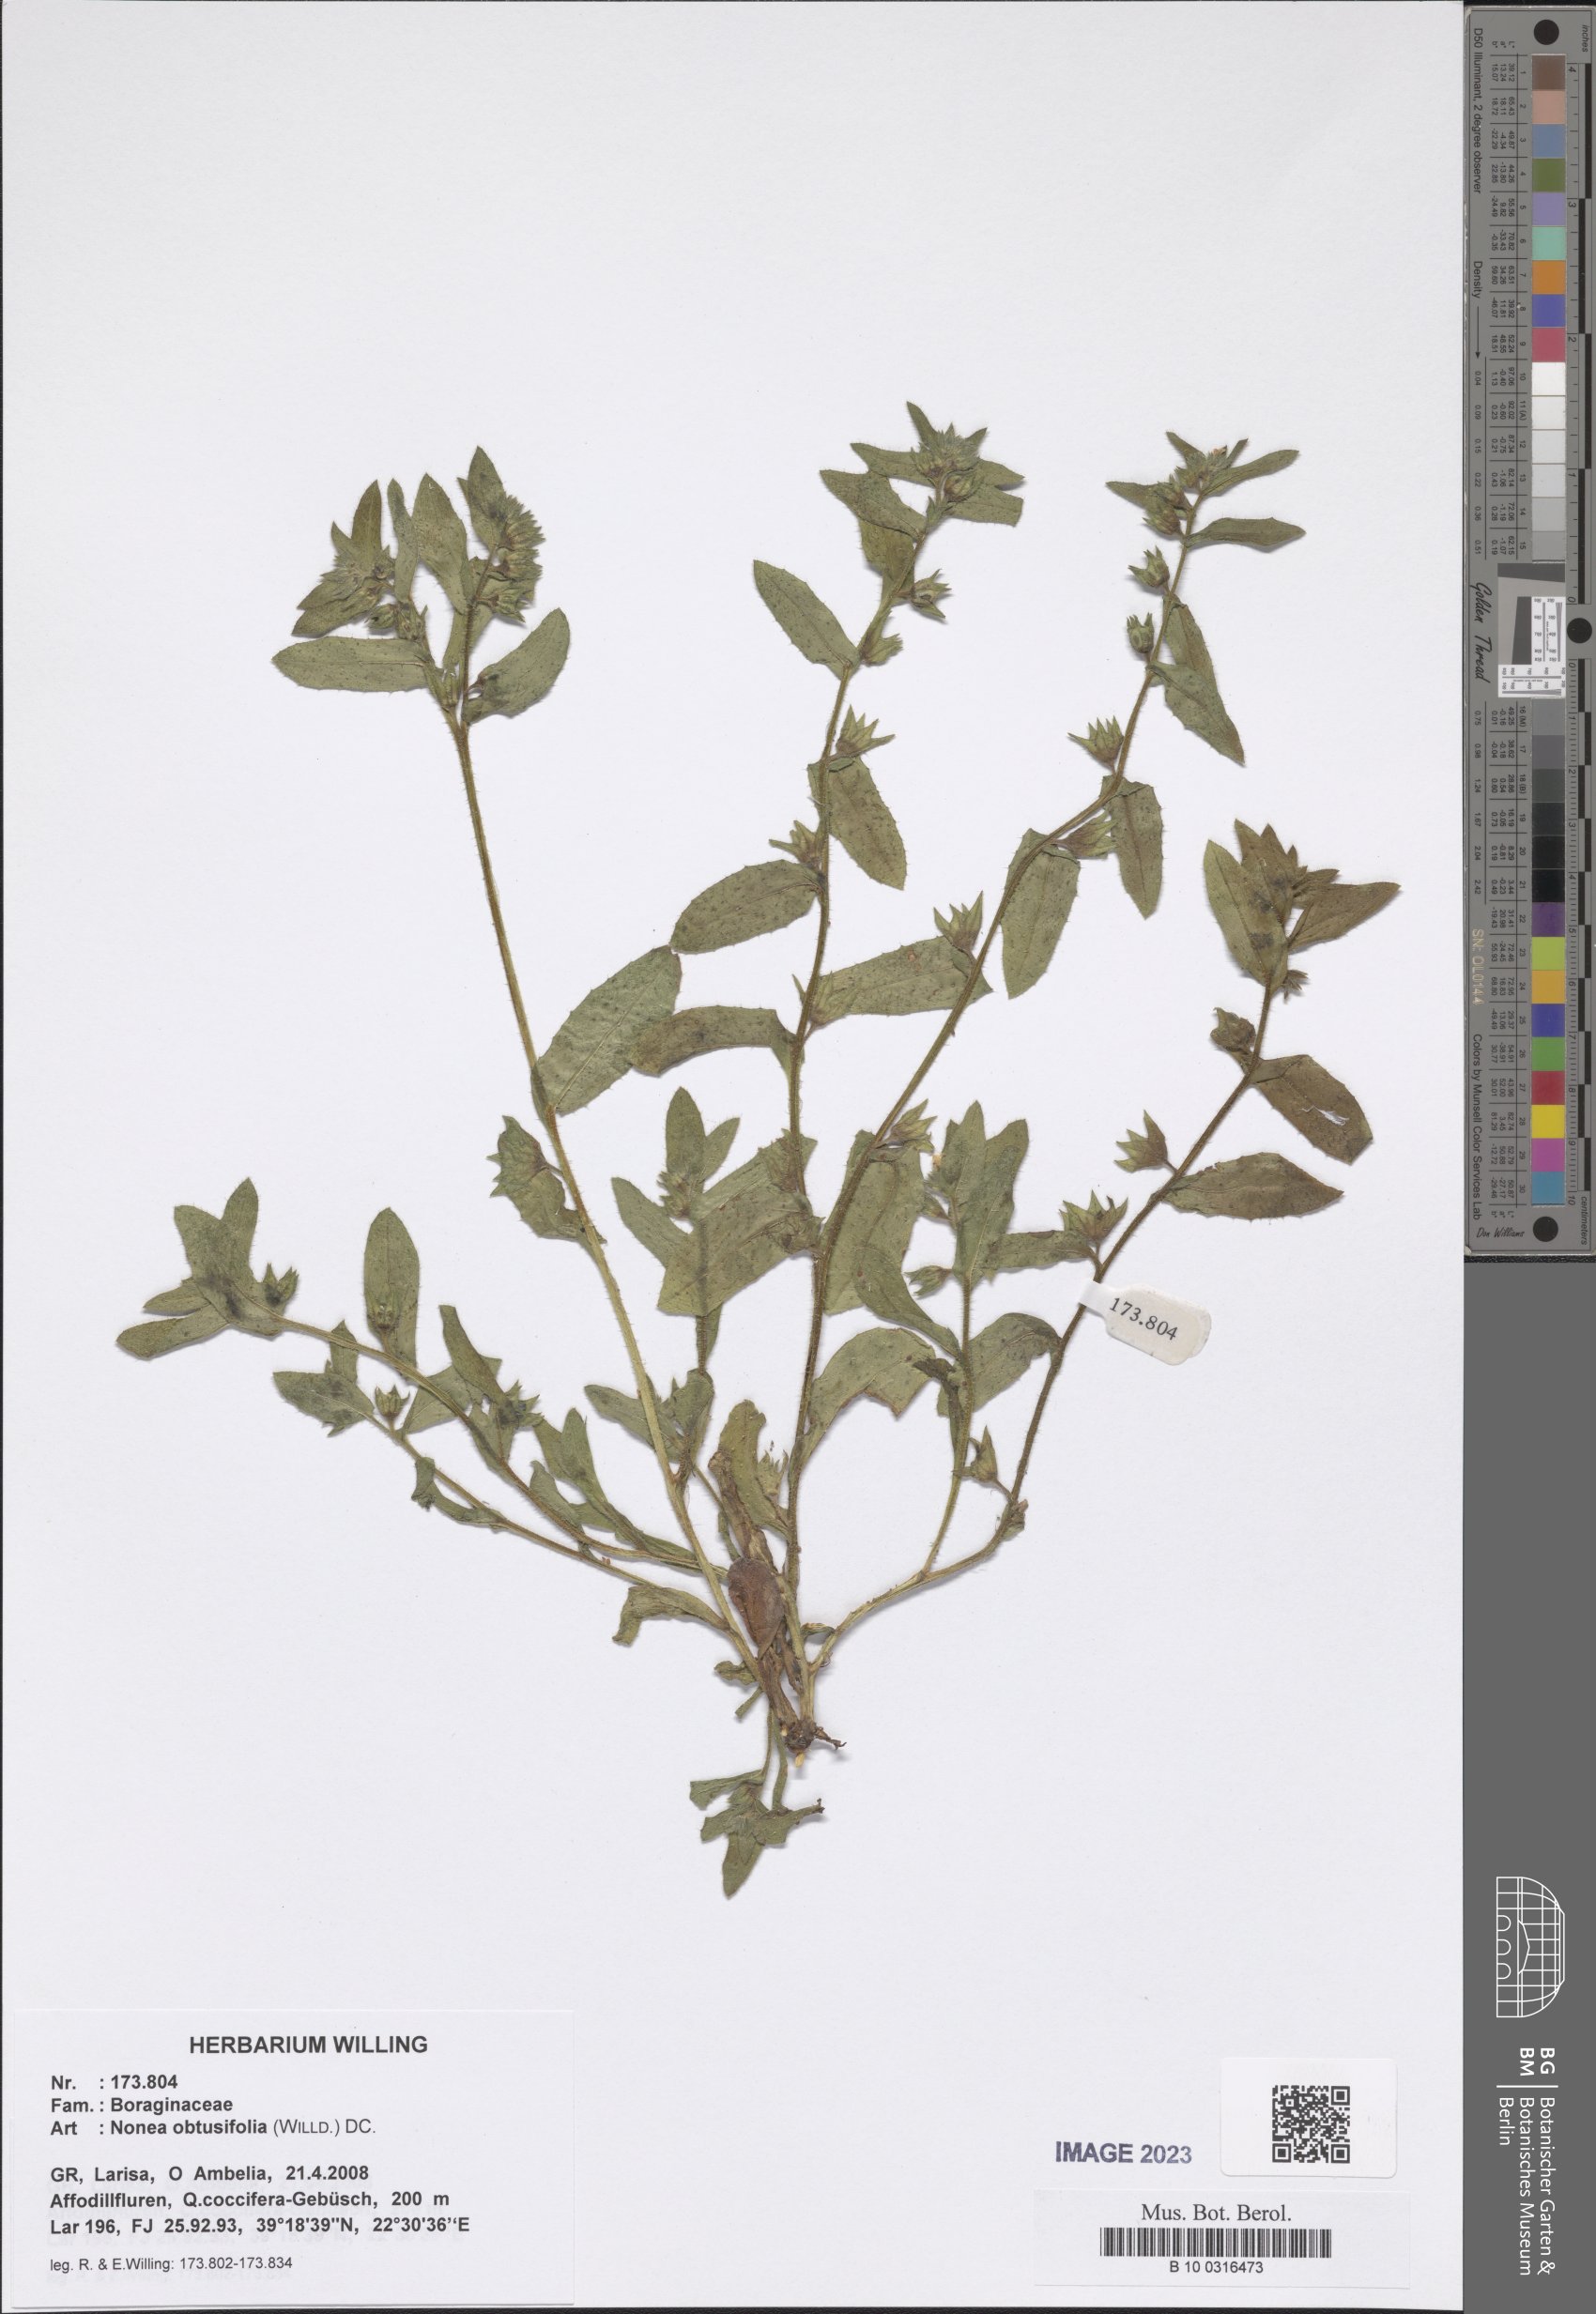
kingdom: Plantae
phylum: Tracheophyta
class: Magnoliopsida
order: Boraginales
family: Boraginaceae
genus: Melanortocarya
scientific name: Melanortocarya obtusifolia
